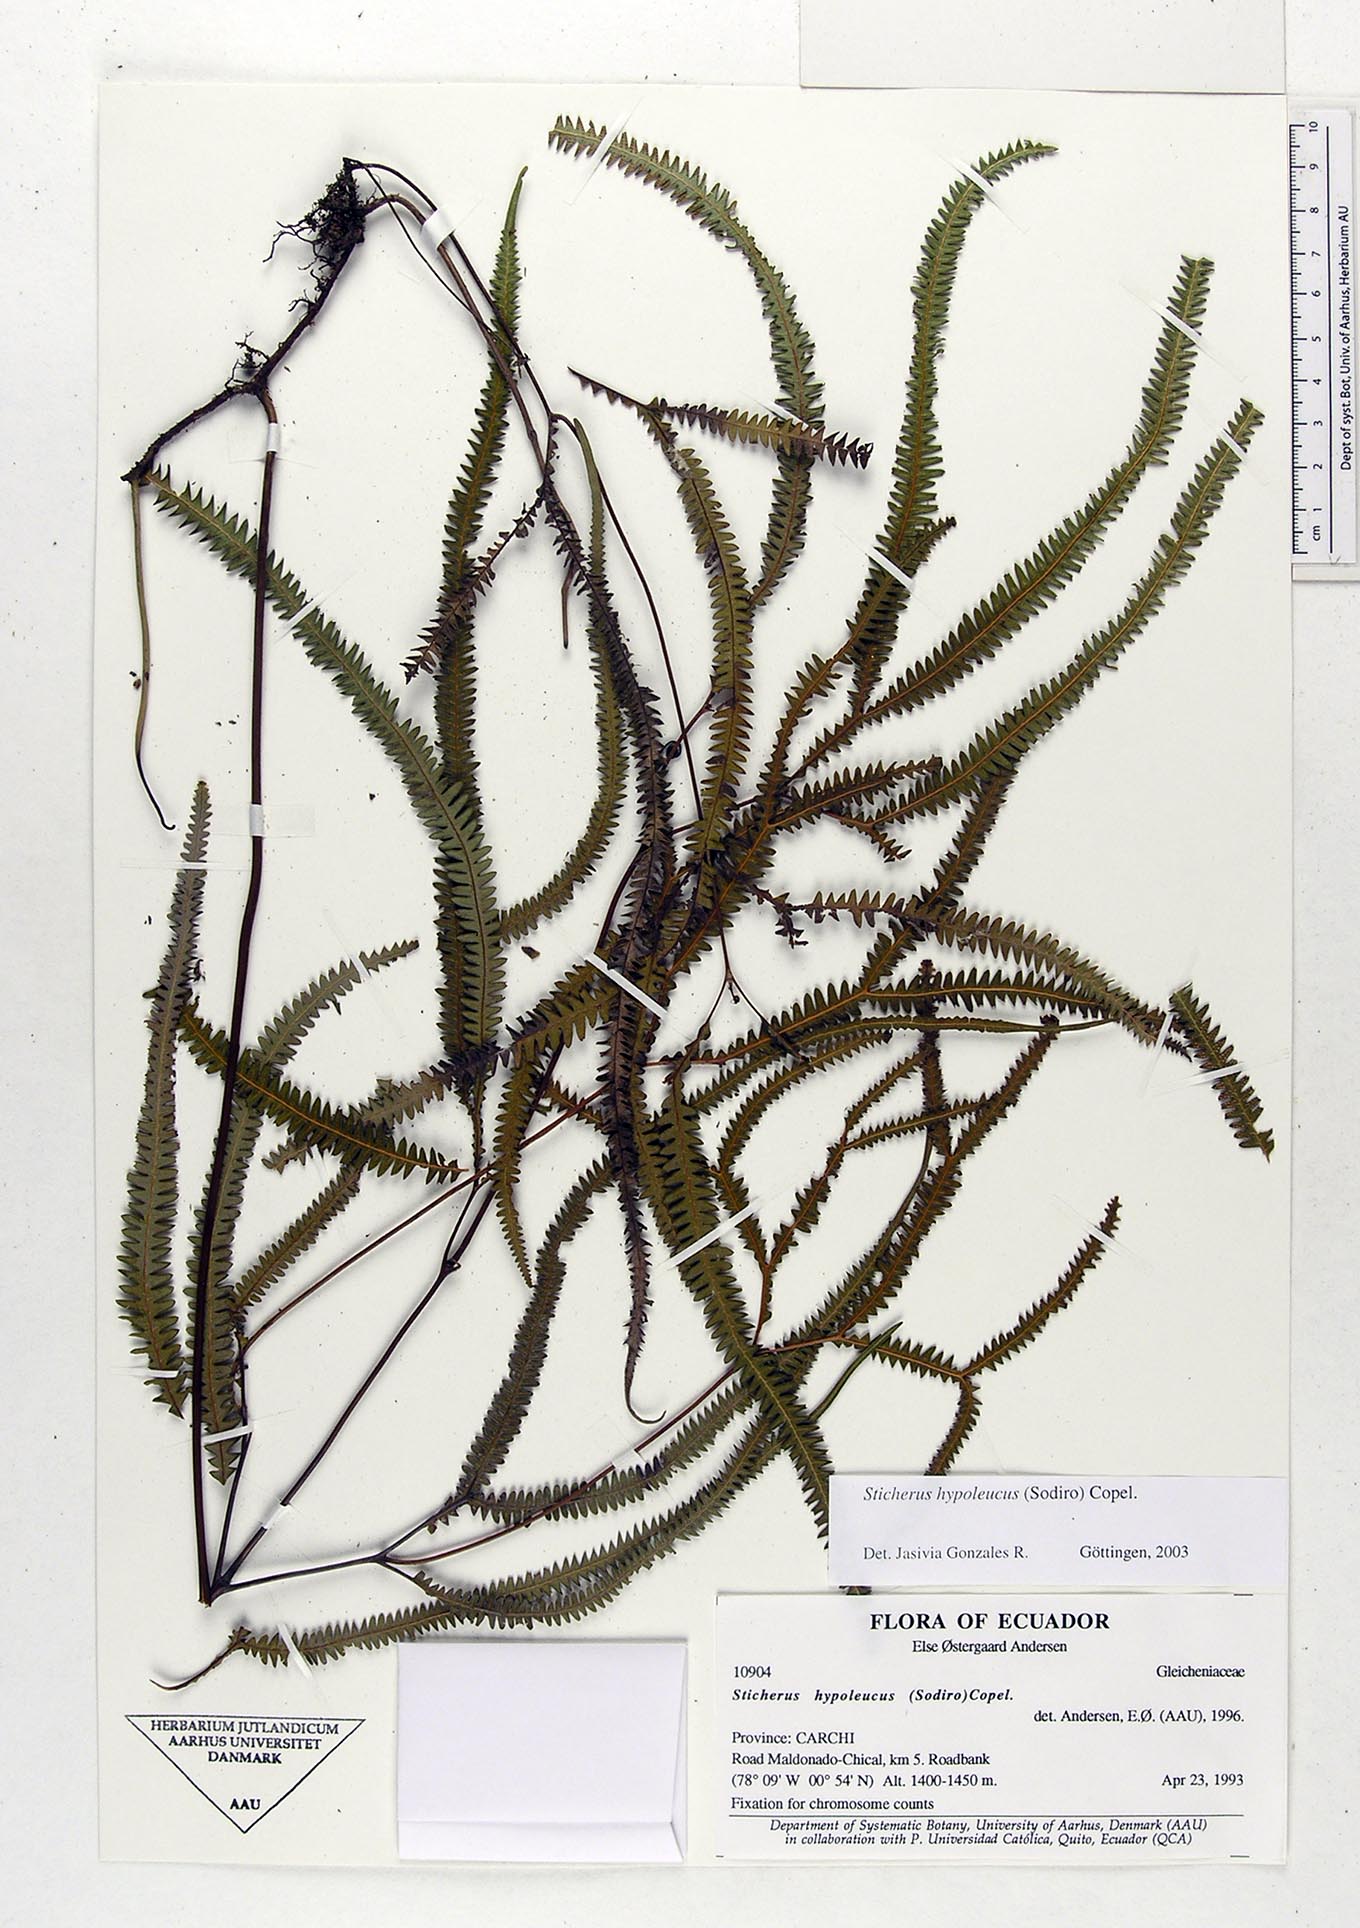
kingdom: Plantae
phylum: Tracheophyta
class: Polypodiopsida
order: Gleicheniales
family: Gleicheniaceae
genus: Sticherus
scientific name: Sticherus hypoleucus
